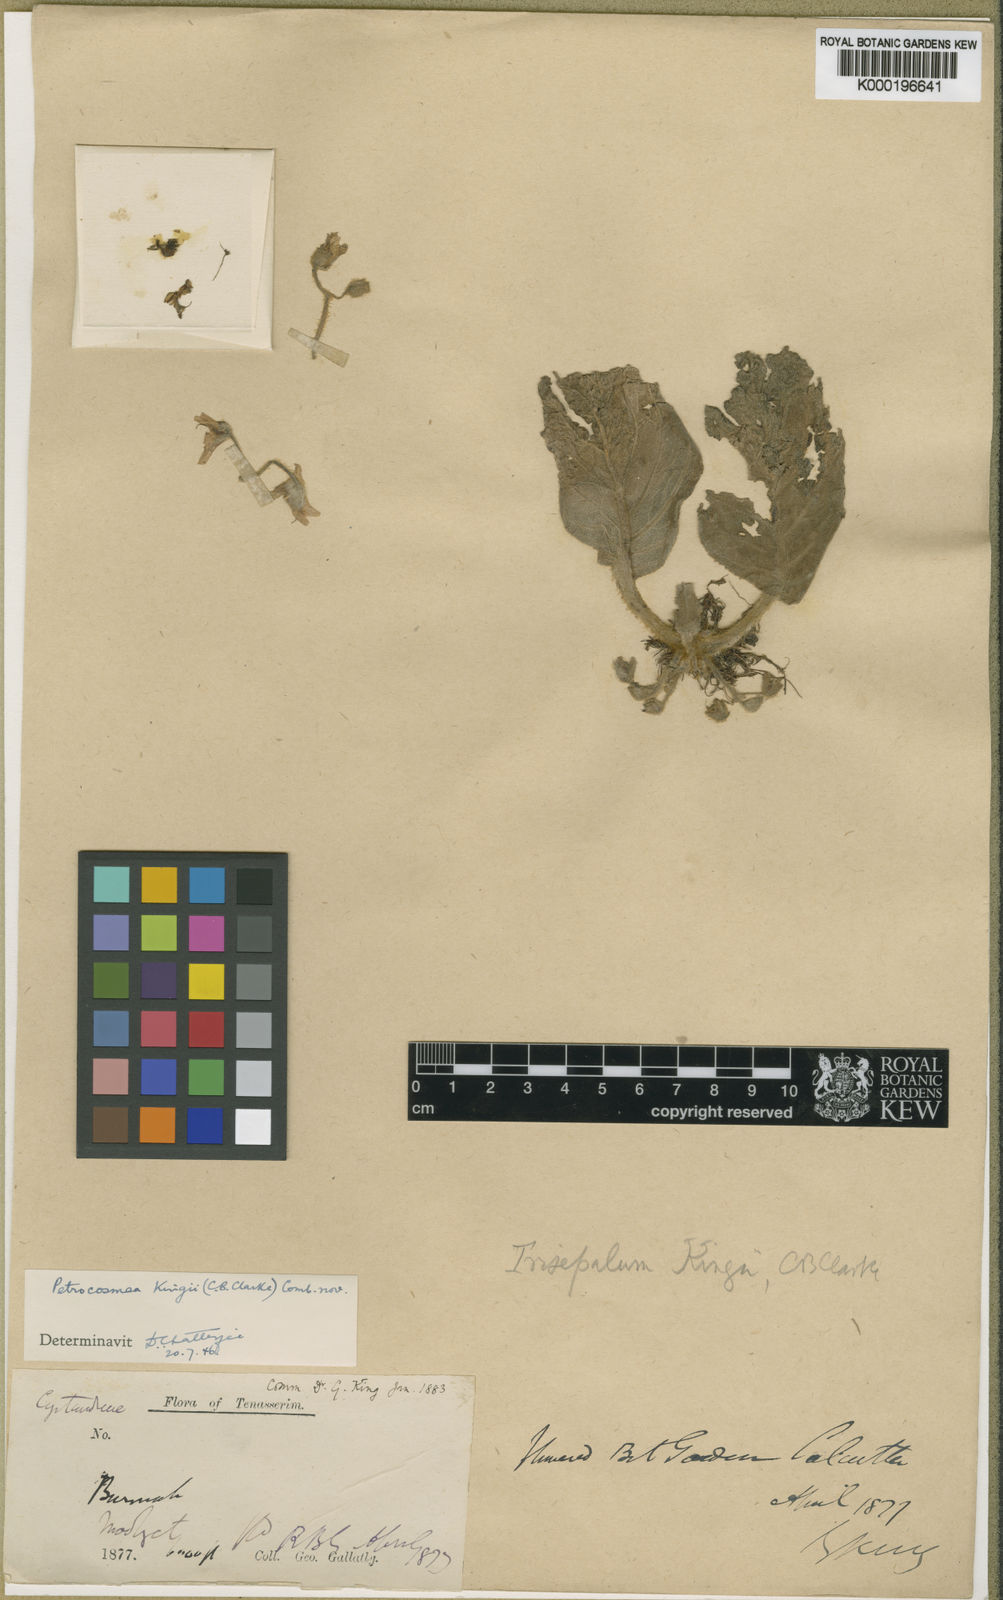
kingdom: Plantae
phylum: Tracheophyta
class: Magnoliopsida
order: Lamiales
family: Gesneriaceae
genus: Petrocosmea
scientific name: Petrocosmea kingii
